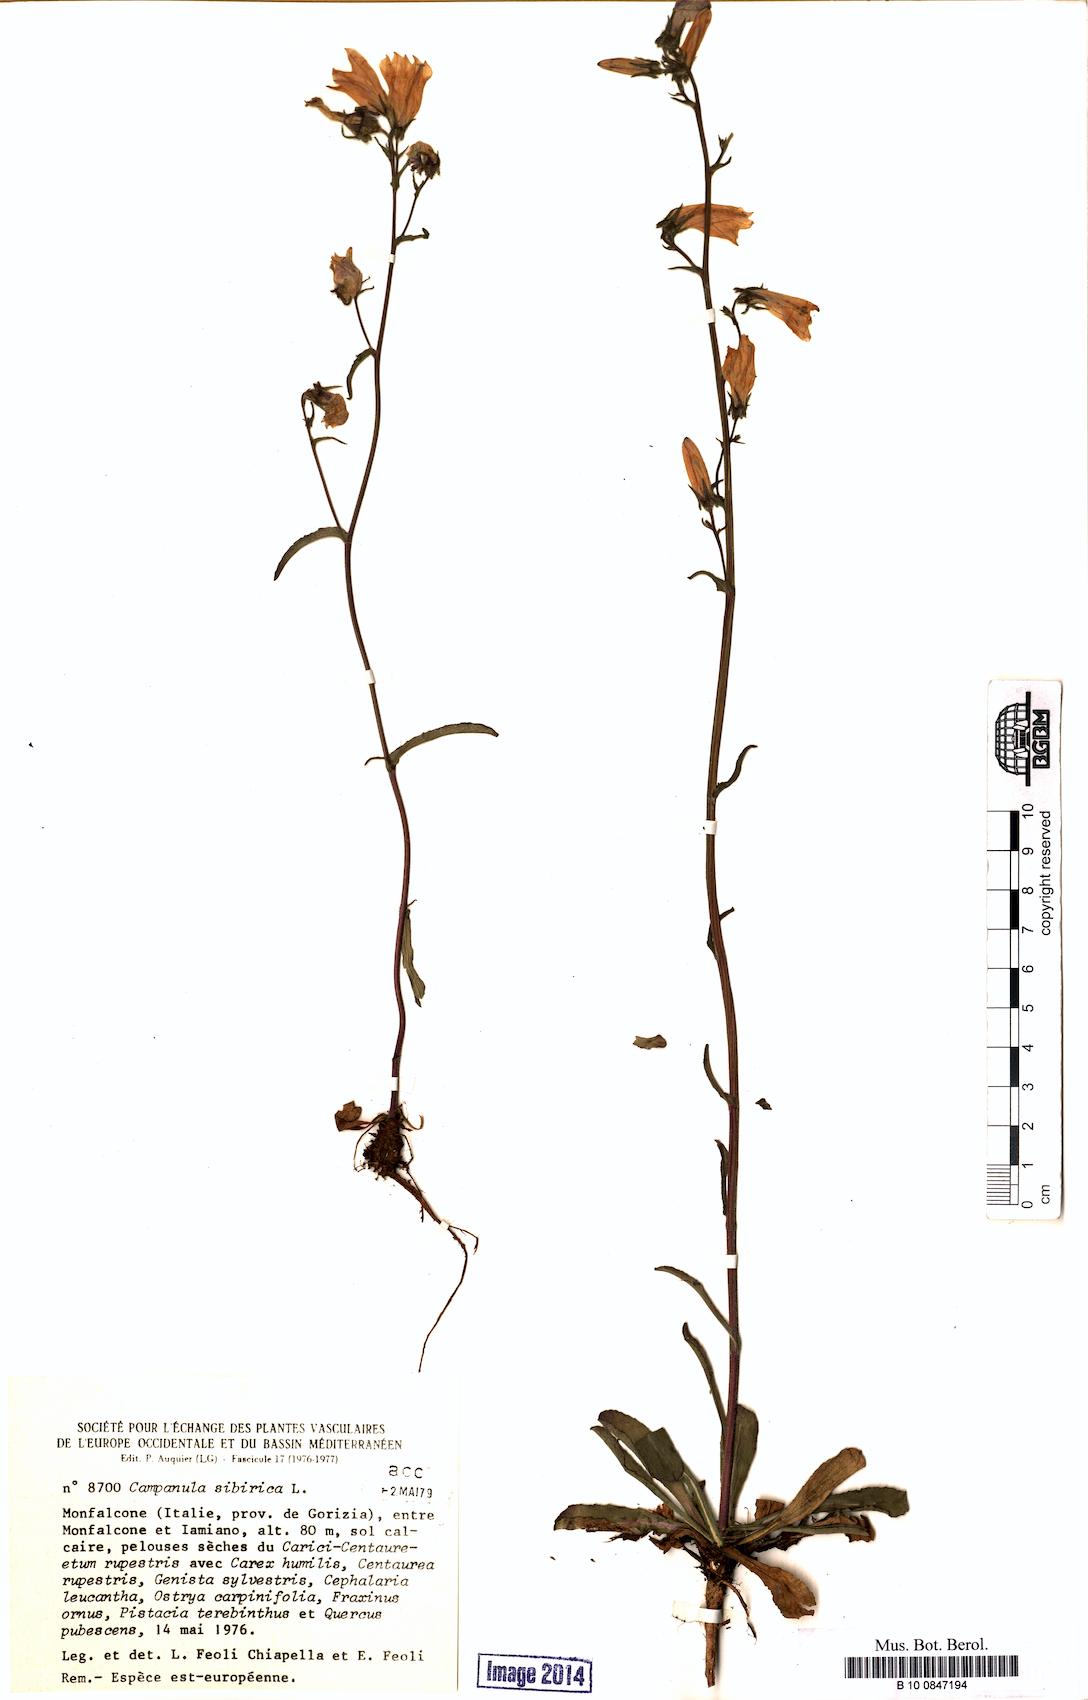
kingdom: Plantae
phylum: Tracheophyta
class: Magnoliopsida
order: Asterales
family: Campanulaceae
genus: Campanula
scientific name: Campanula sibirica
